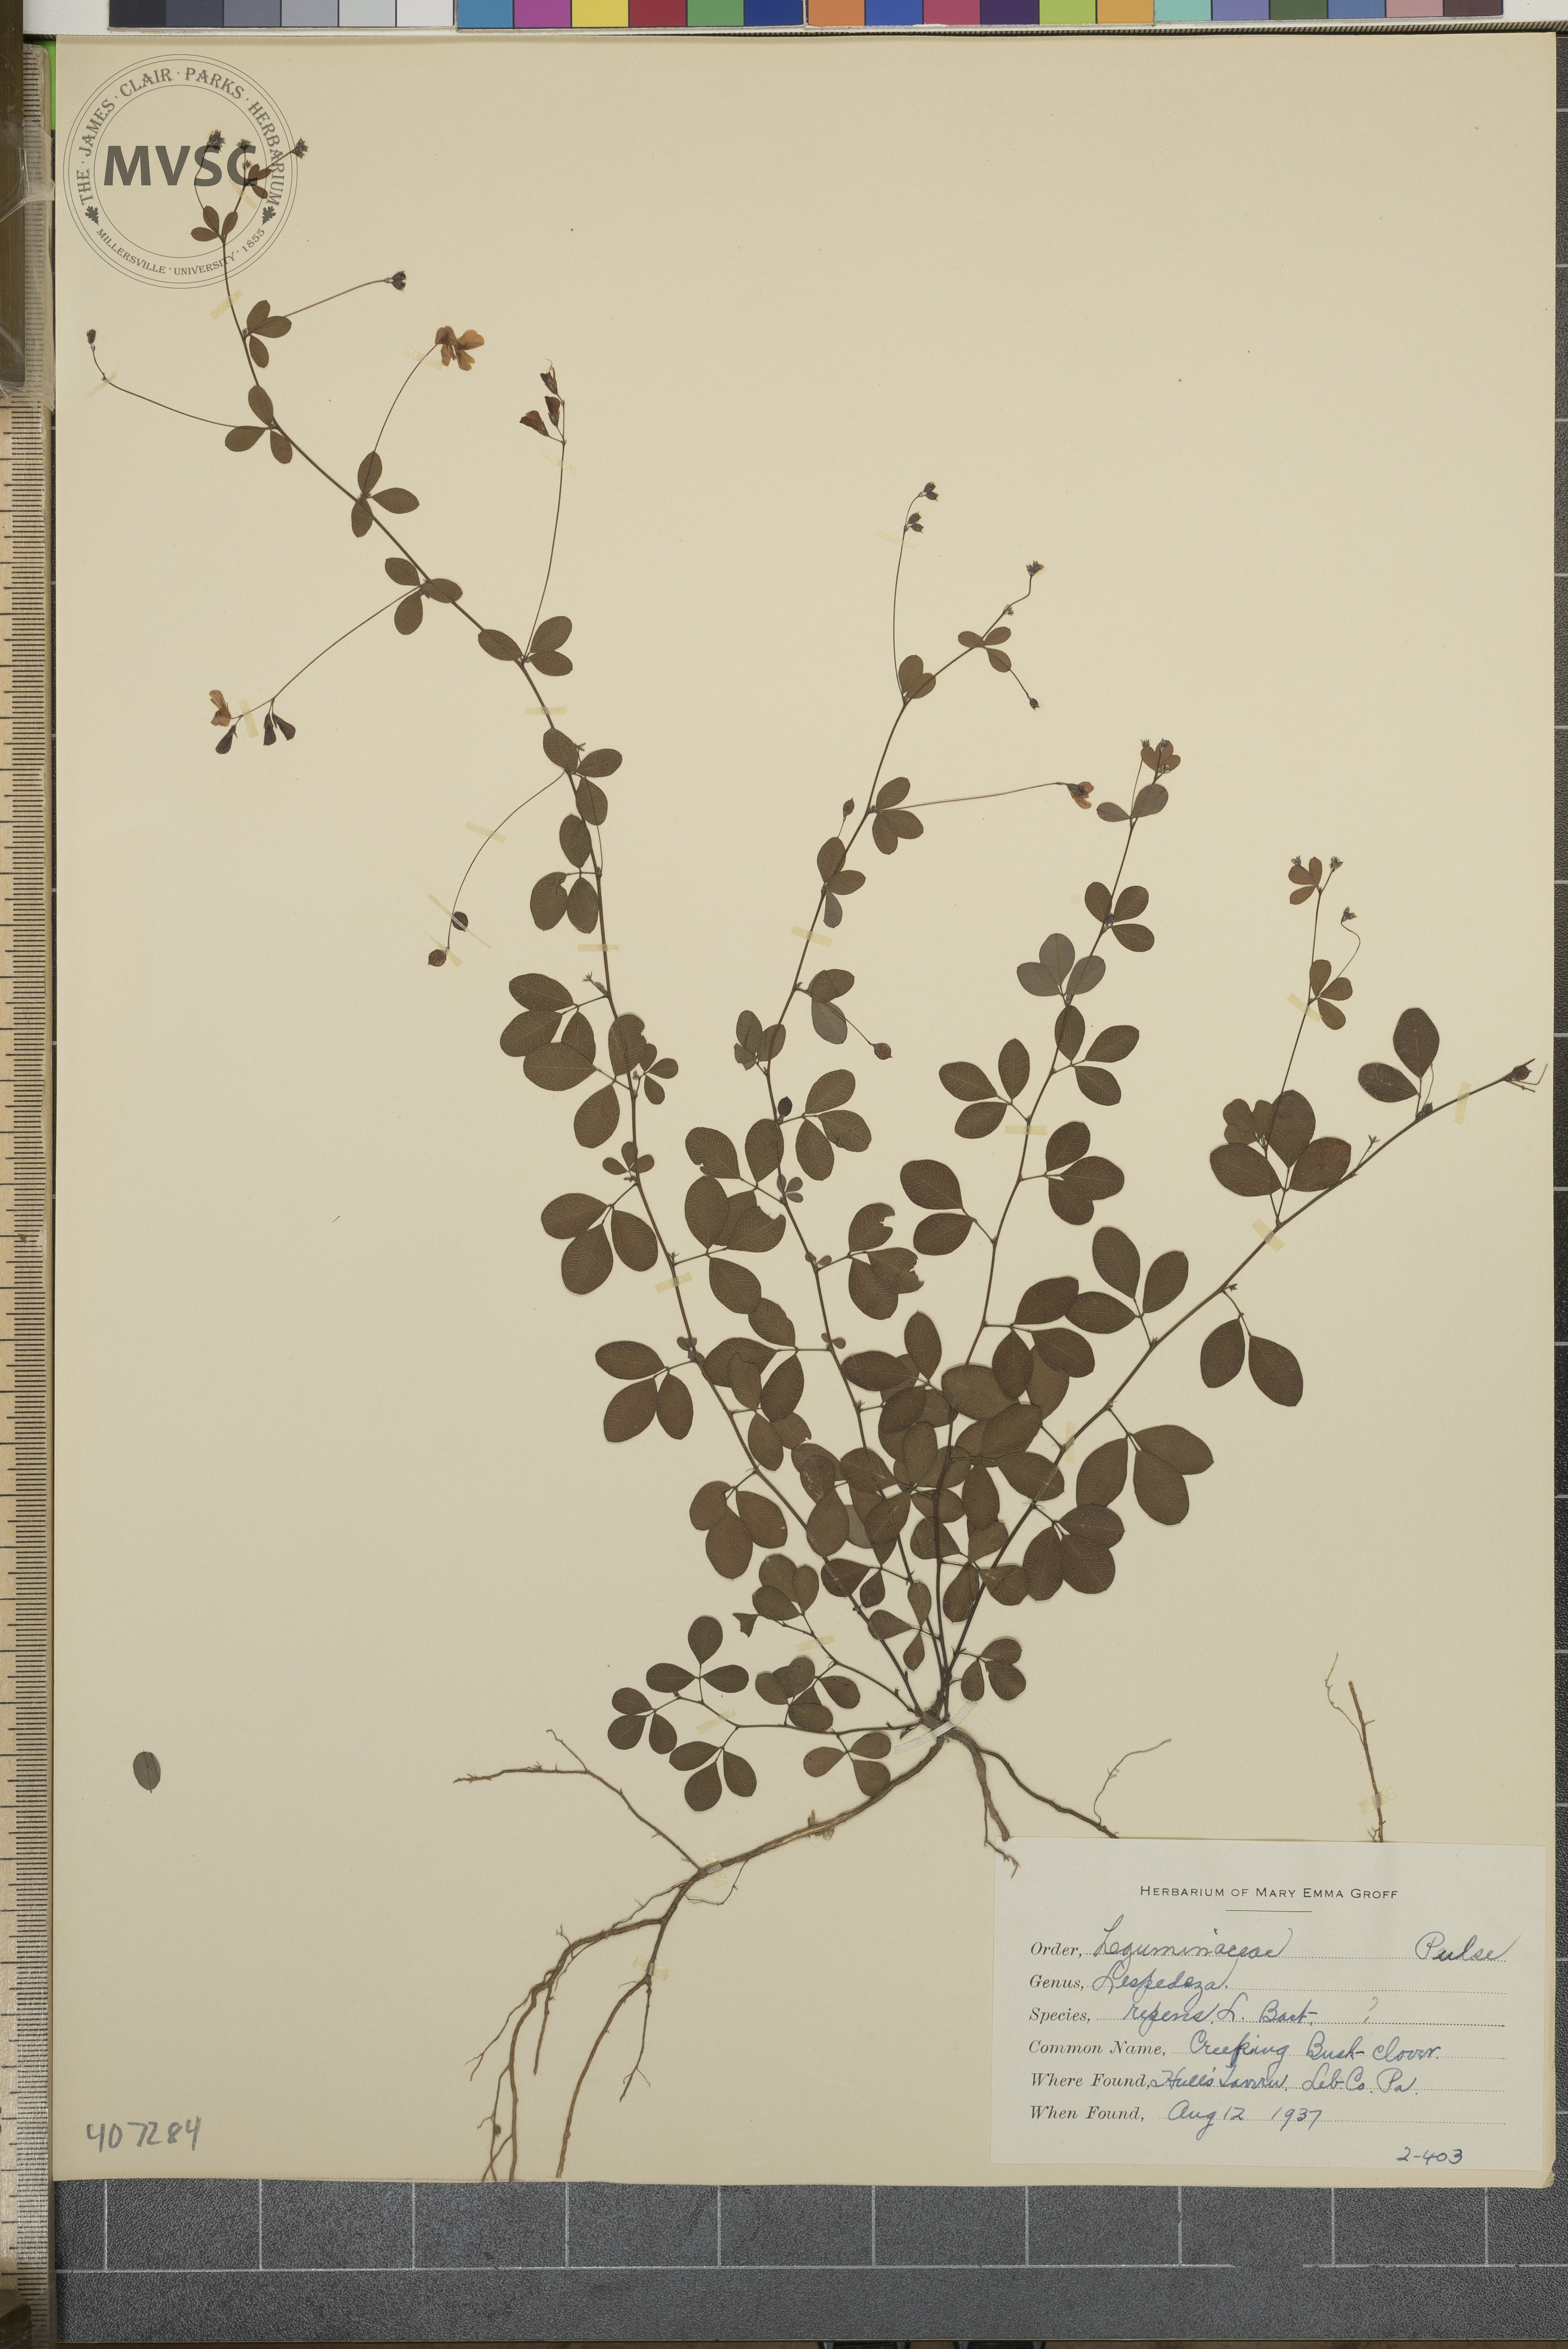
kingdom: Plantae
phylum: Tracheophyta
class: Magnoliopsida
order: Fabales
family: Fabaceae
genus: Lespedeza
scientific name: Lespedeza repens
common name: Creeping Bush-clover
